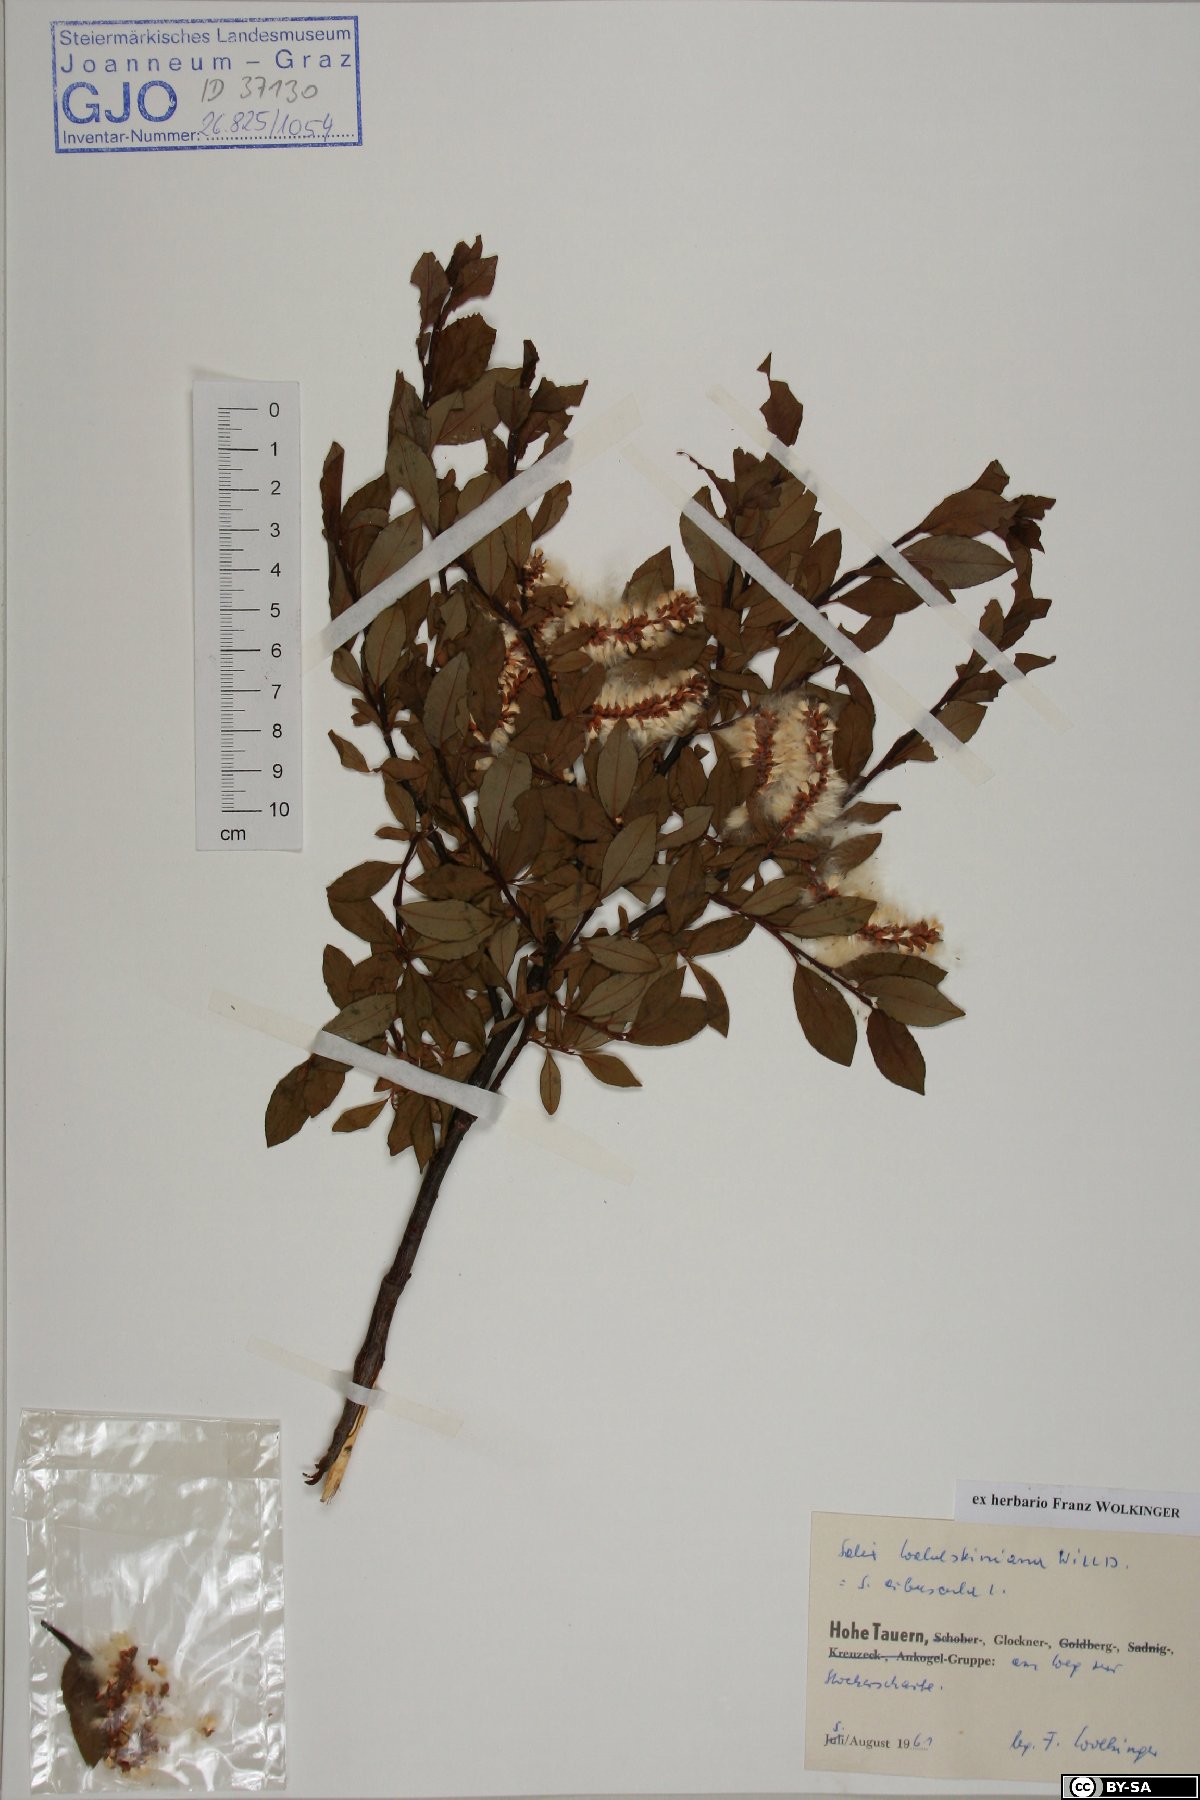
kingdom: Plantae
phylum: Tracheophyta
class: Magnoliopsida
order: Malpighiales
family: Salicaceae
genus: Salix
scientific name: Salix waldsteiniana
